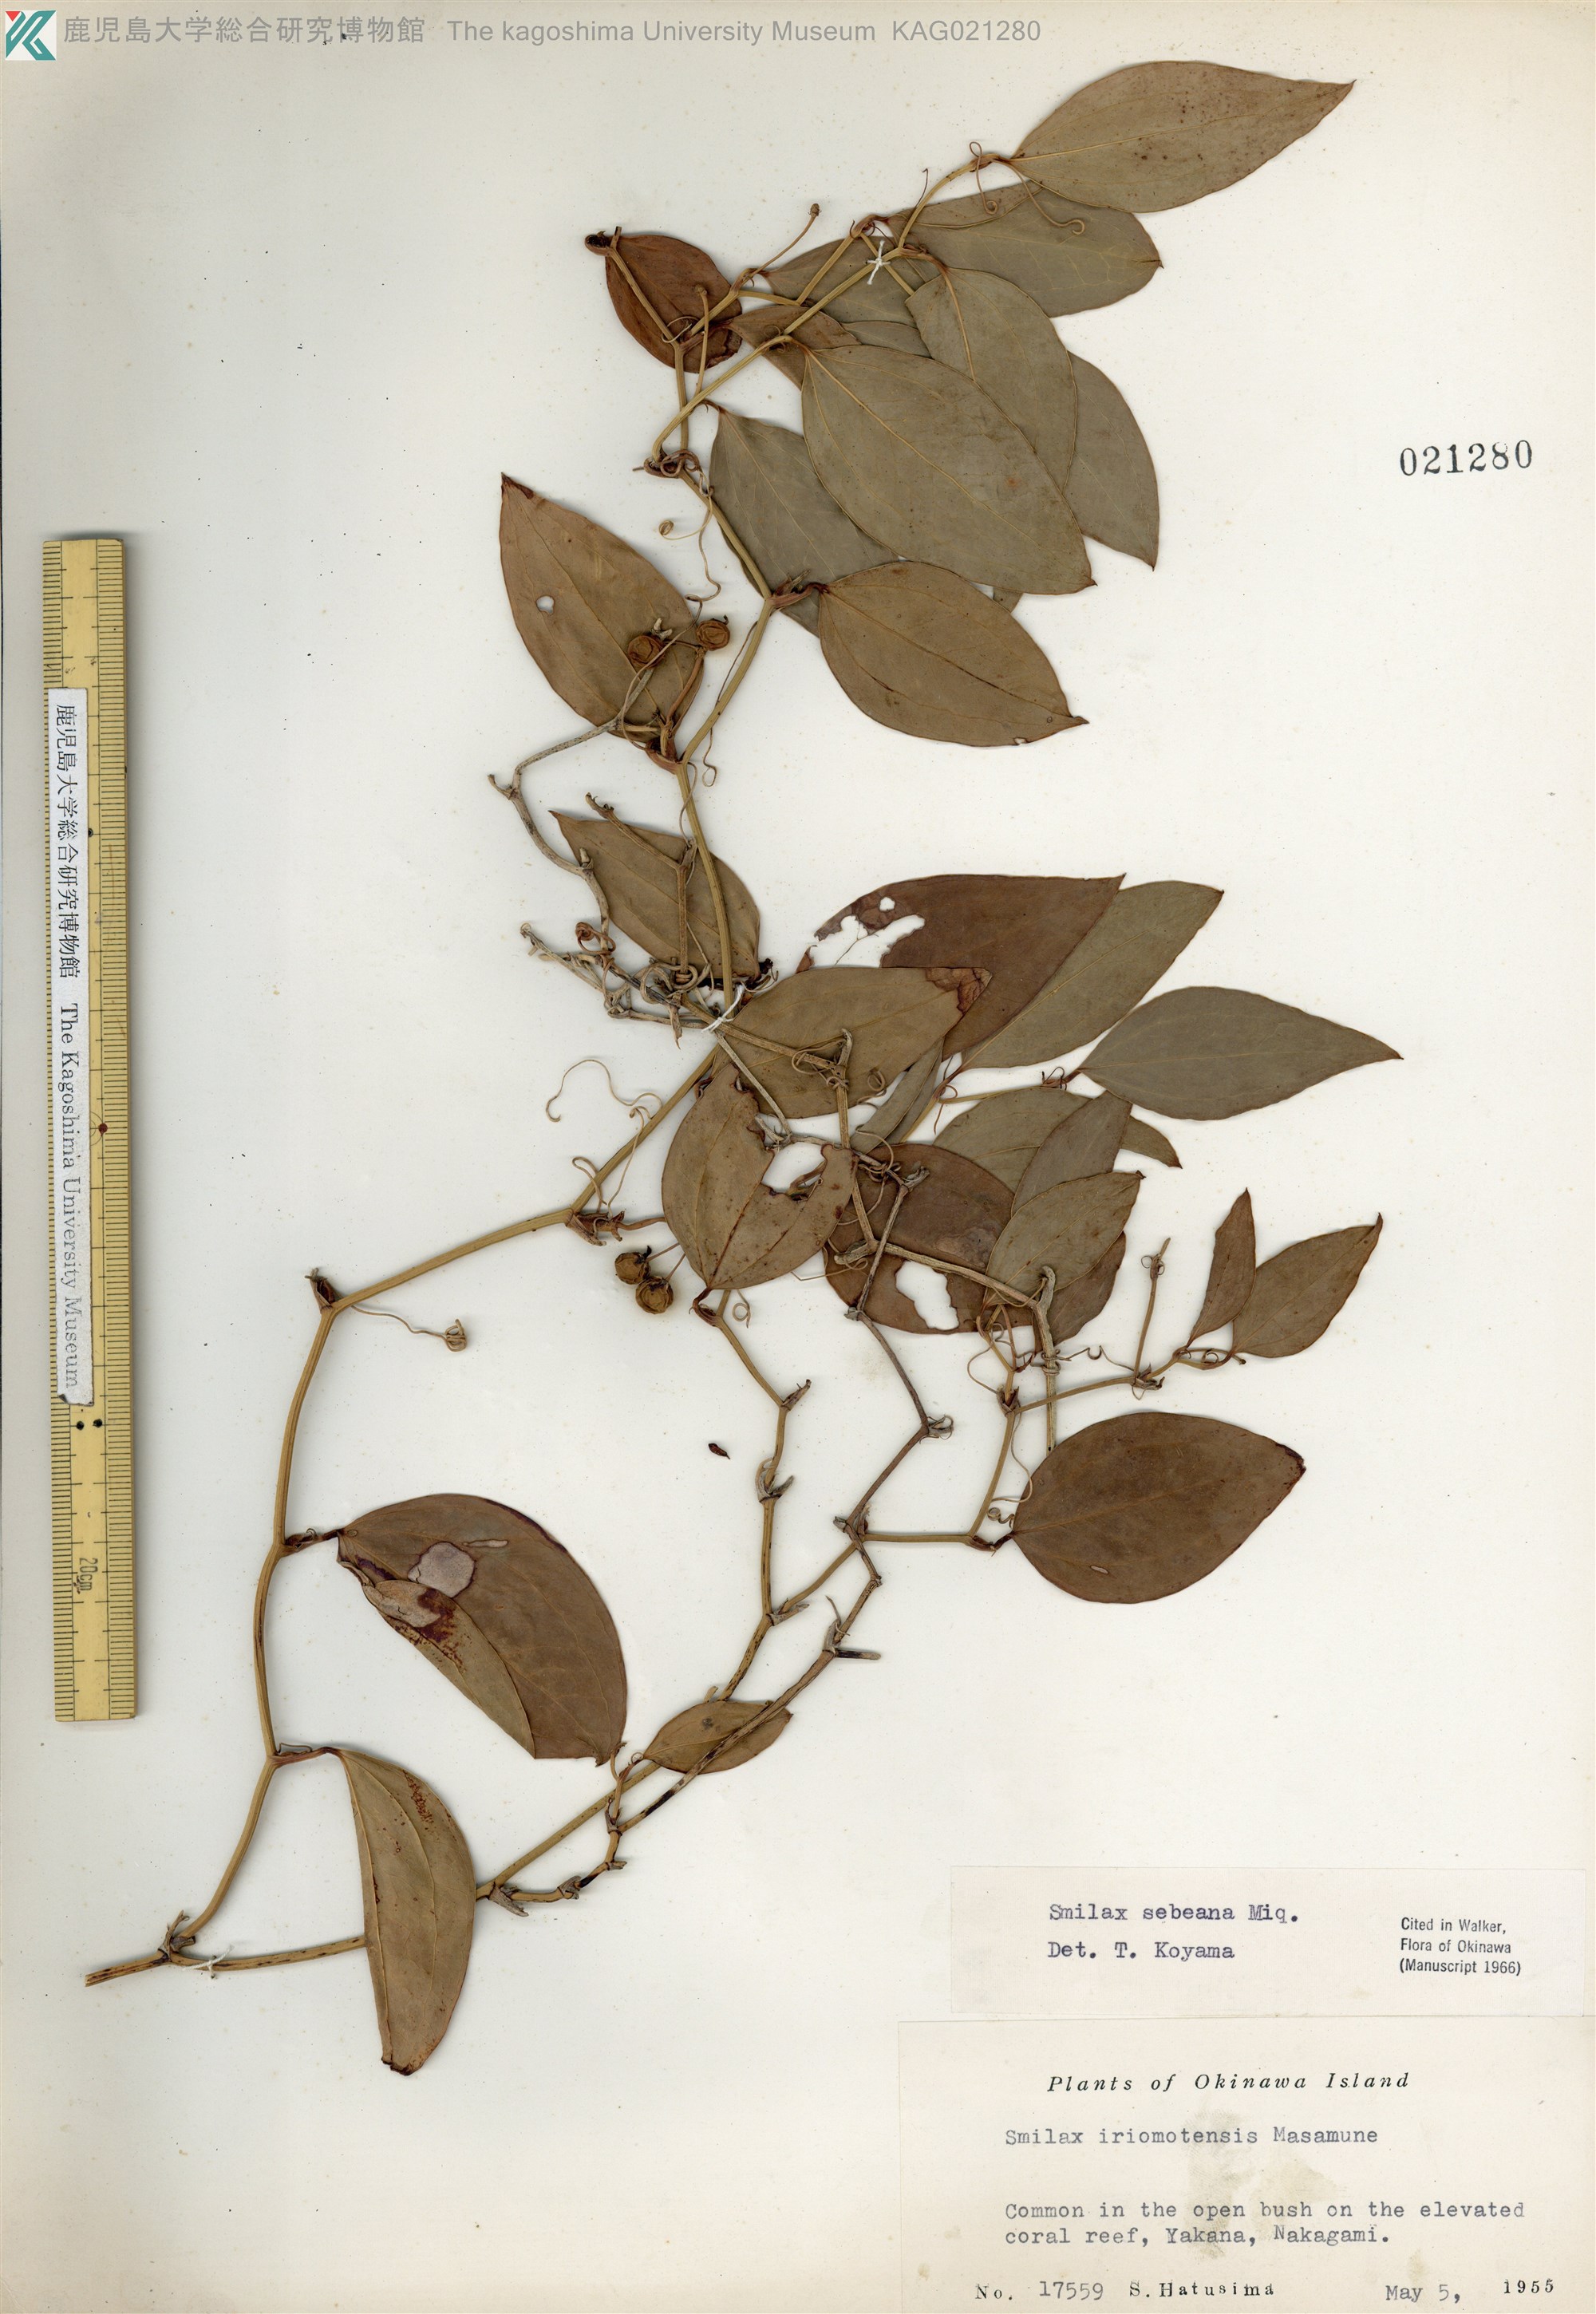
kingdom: Plantae
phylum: Tracheophyta
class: Liliopsida
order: Liliales
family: Smilacaceae
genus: Smilax
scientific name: Smilax sebeana
